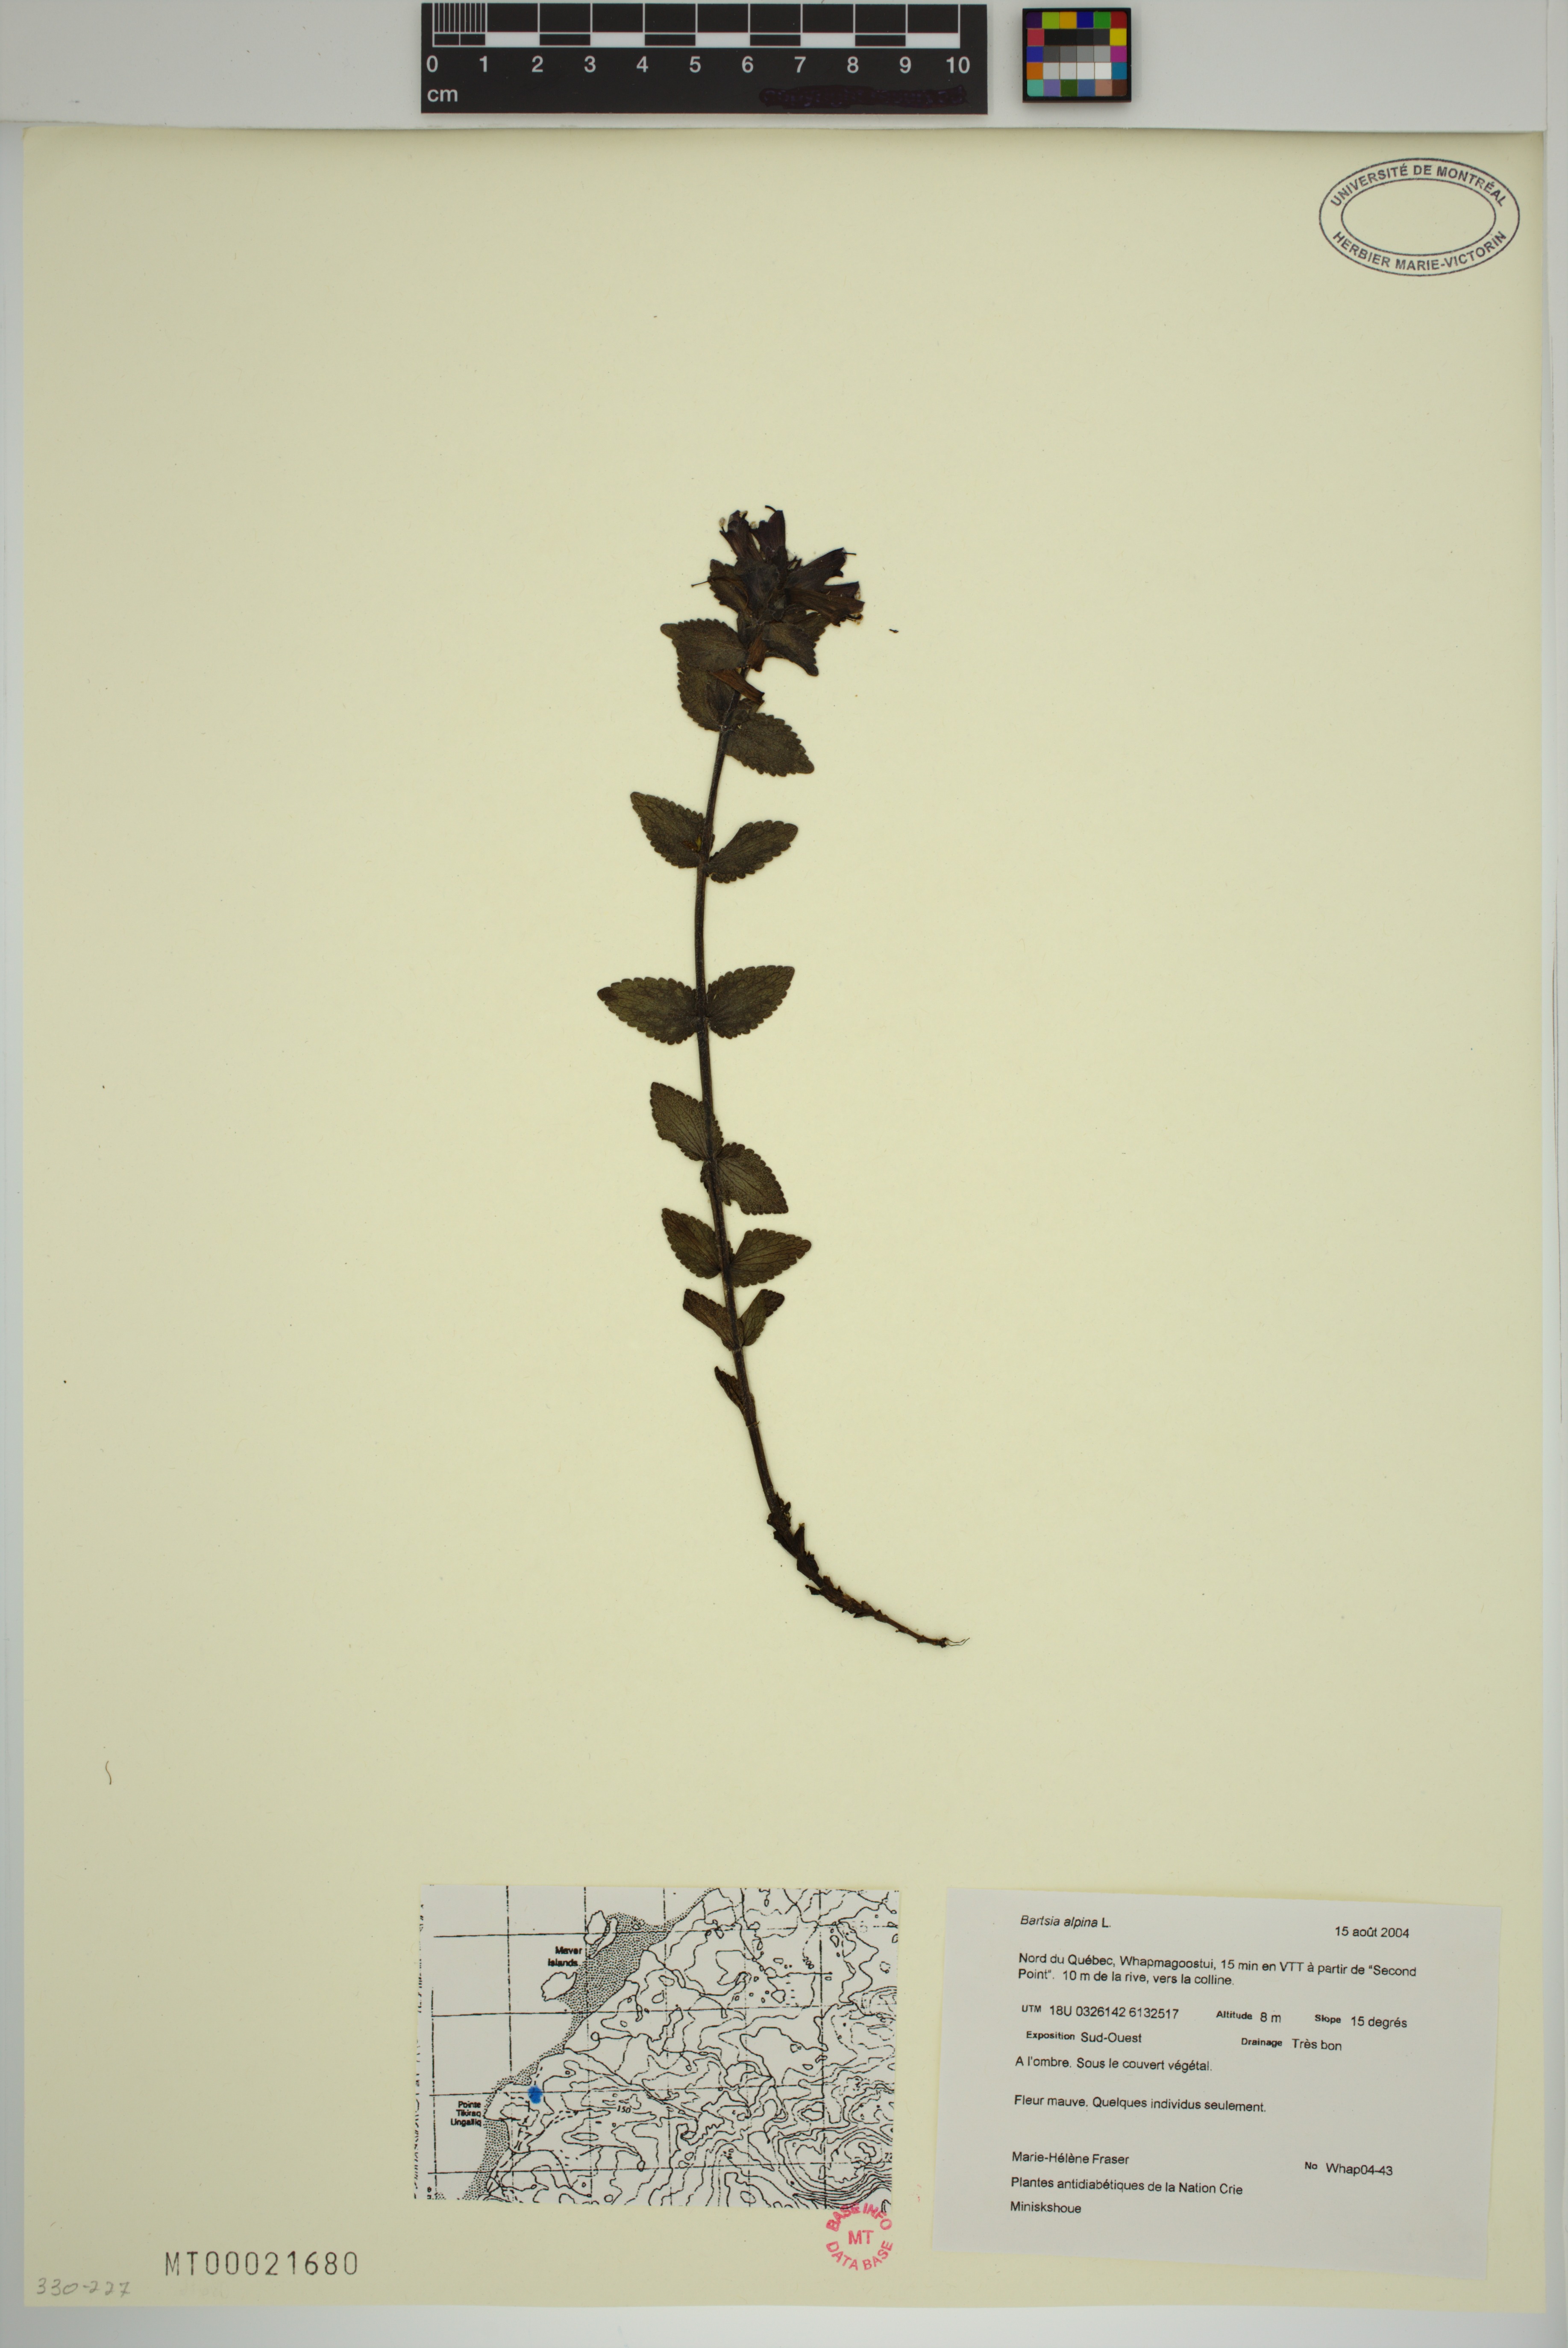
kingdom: Plantae
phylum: Tracheophyta
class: Magnoliopsida
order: Lamiales
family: Orobanchaceae
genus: Bartsia
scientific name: Bartsia alpina
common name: Alpine bartsia
